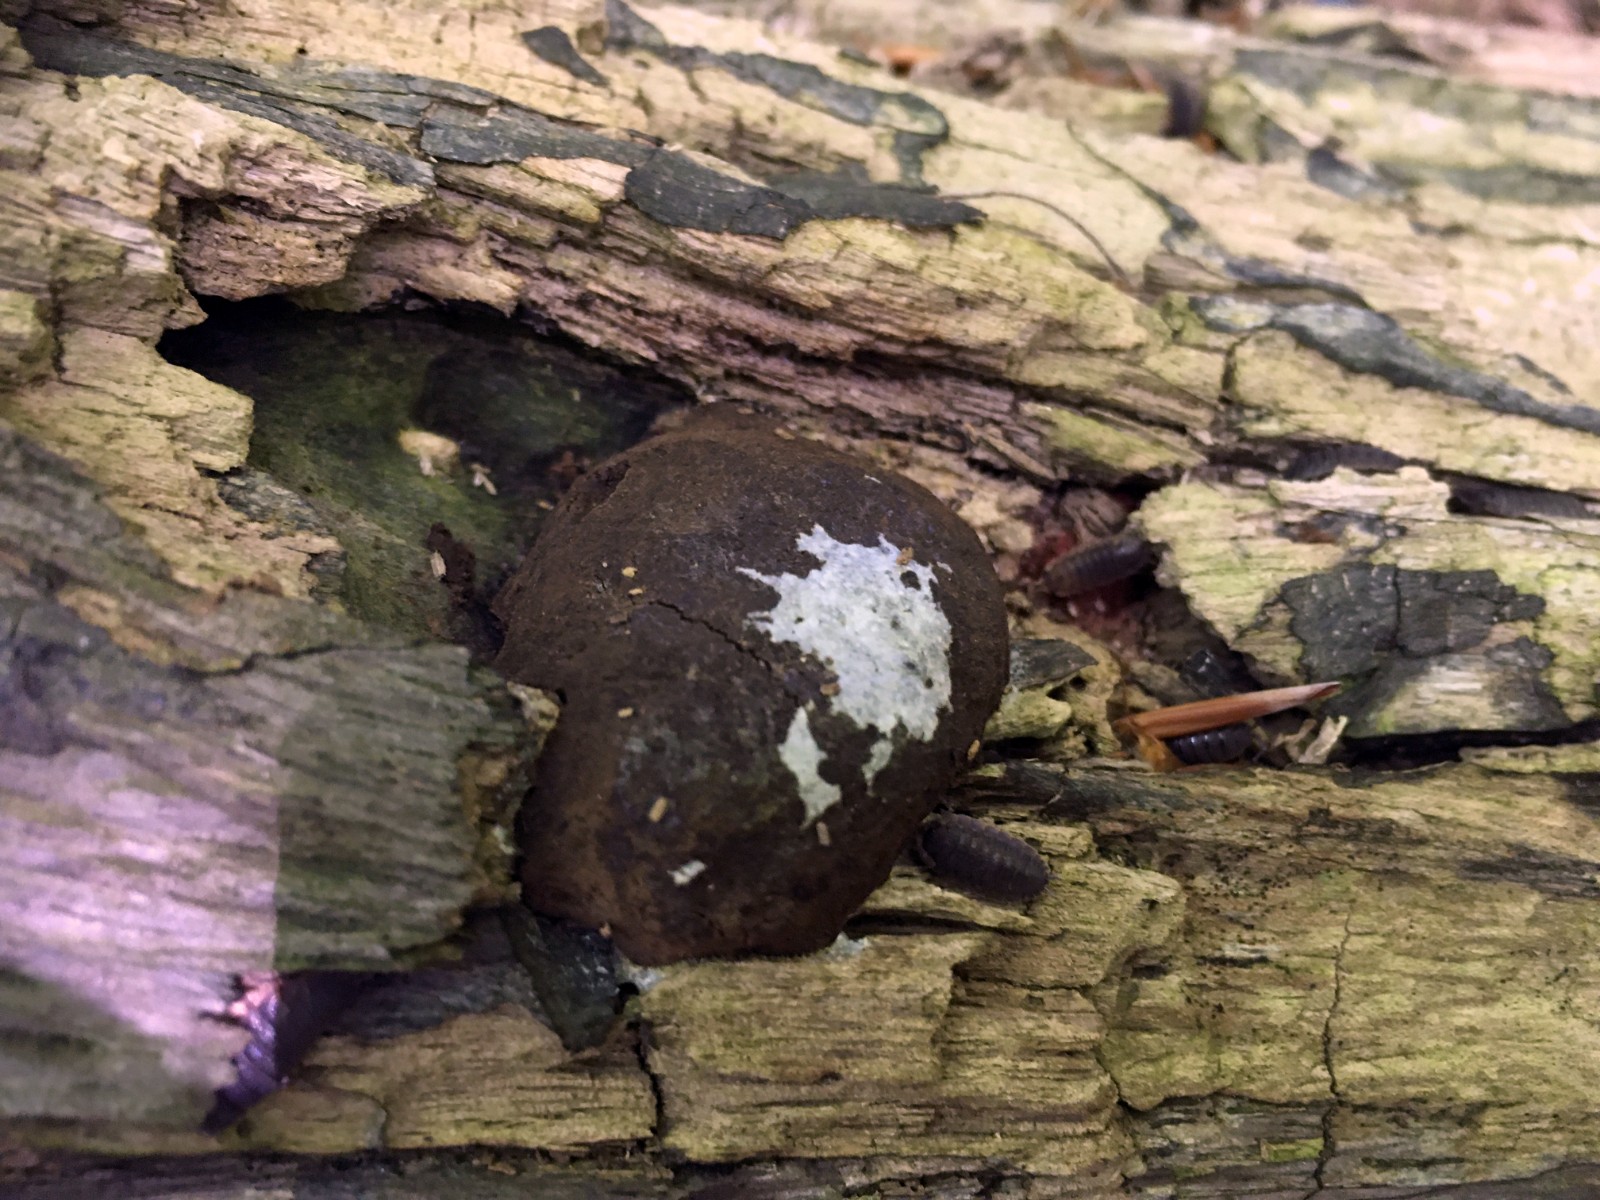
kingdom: Protozoa
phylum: Mycetozoa
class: Myxomycetes
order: Cribrariales
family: Tubiferaceae
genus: Reticularia
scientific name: Reticularia lycoperdon
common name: skinnende støvpude
